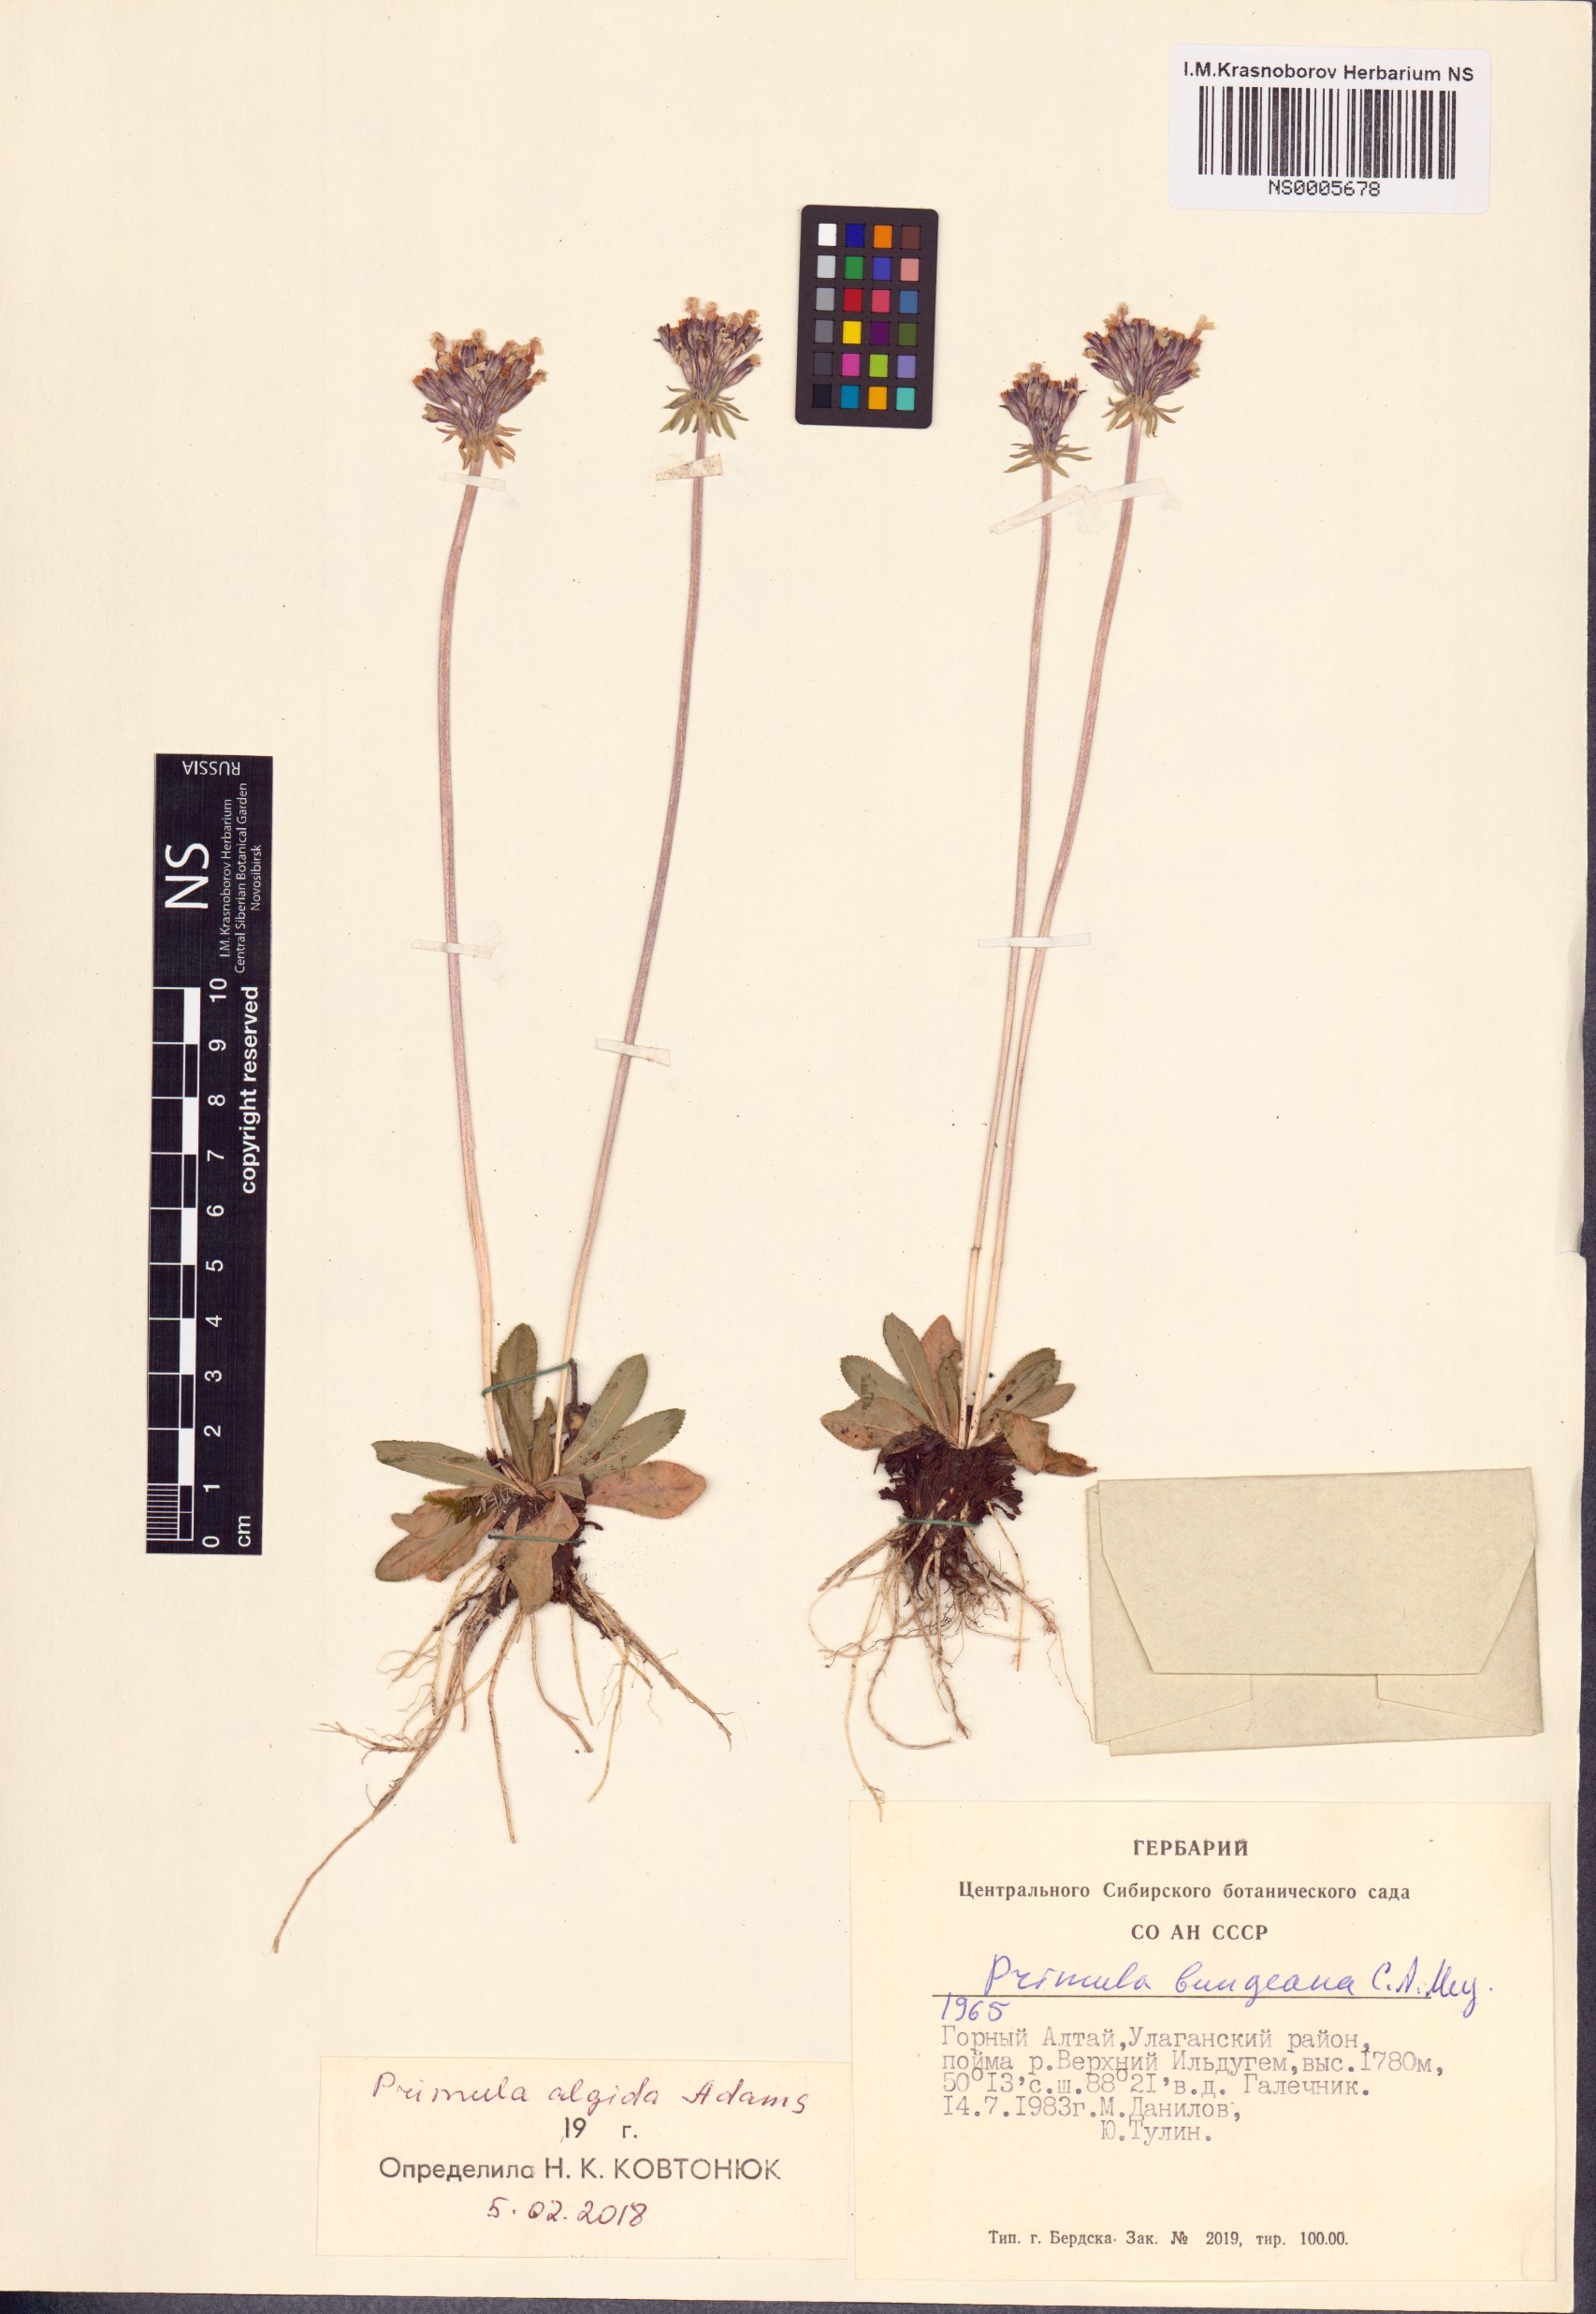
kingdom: Plantae
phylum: Tracheophyta
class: Magnoliopsida
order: Ericales
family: Primulaceae
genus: Primula
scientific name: Primula algida
